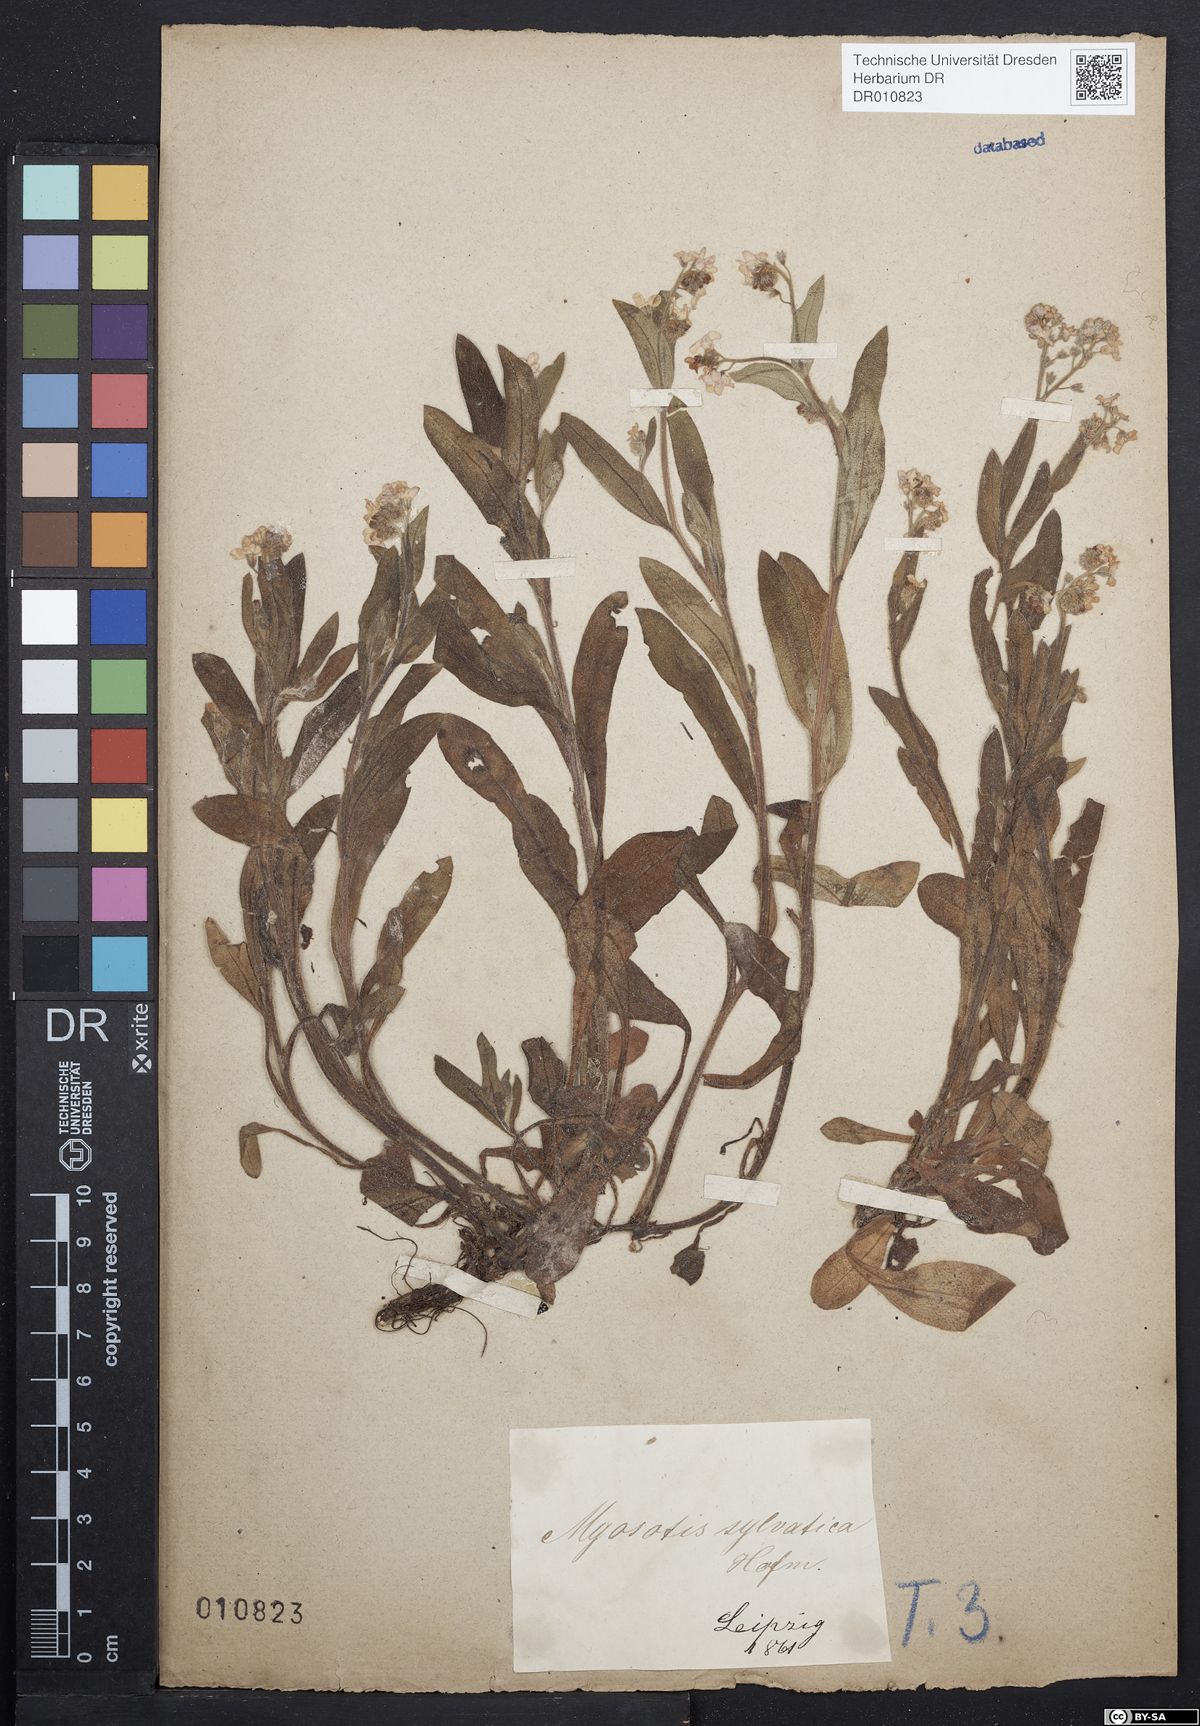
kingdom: Plantae
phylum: Tracheophyta
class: Magnoliopsida
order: Boraginales
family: Boraginaceae
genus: Myosotis
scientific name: Myosotis sylvatica
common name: Wood forget-me-not
